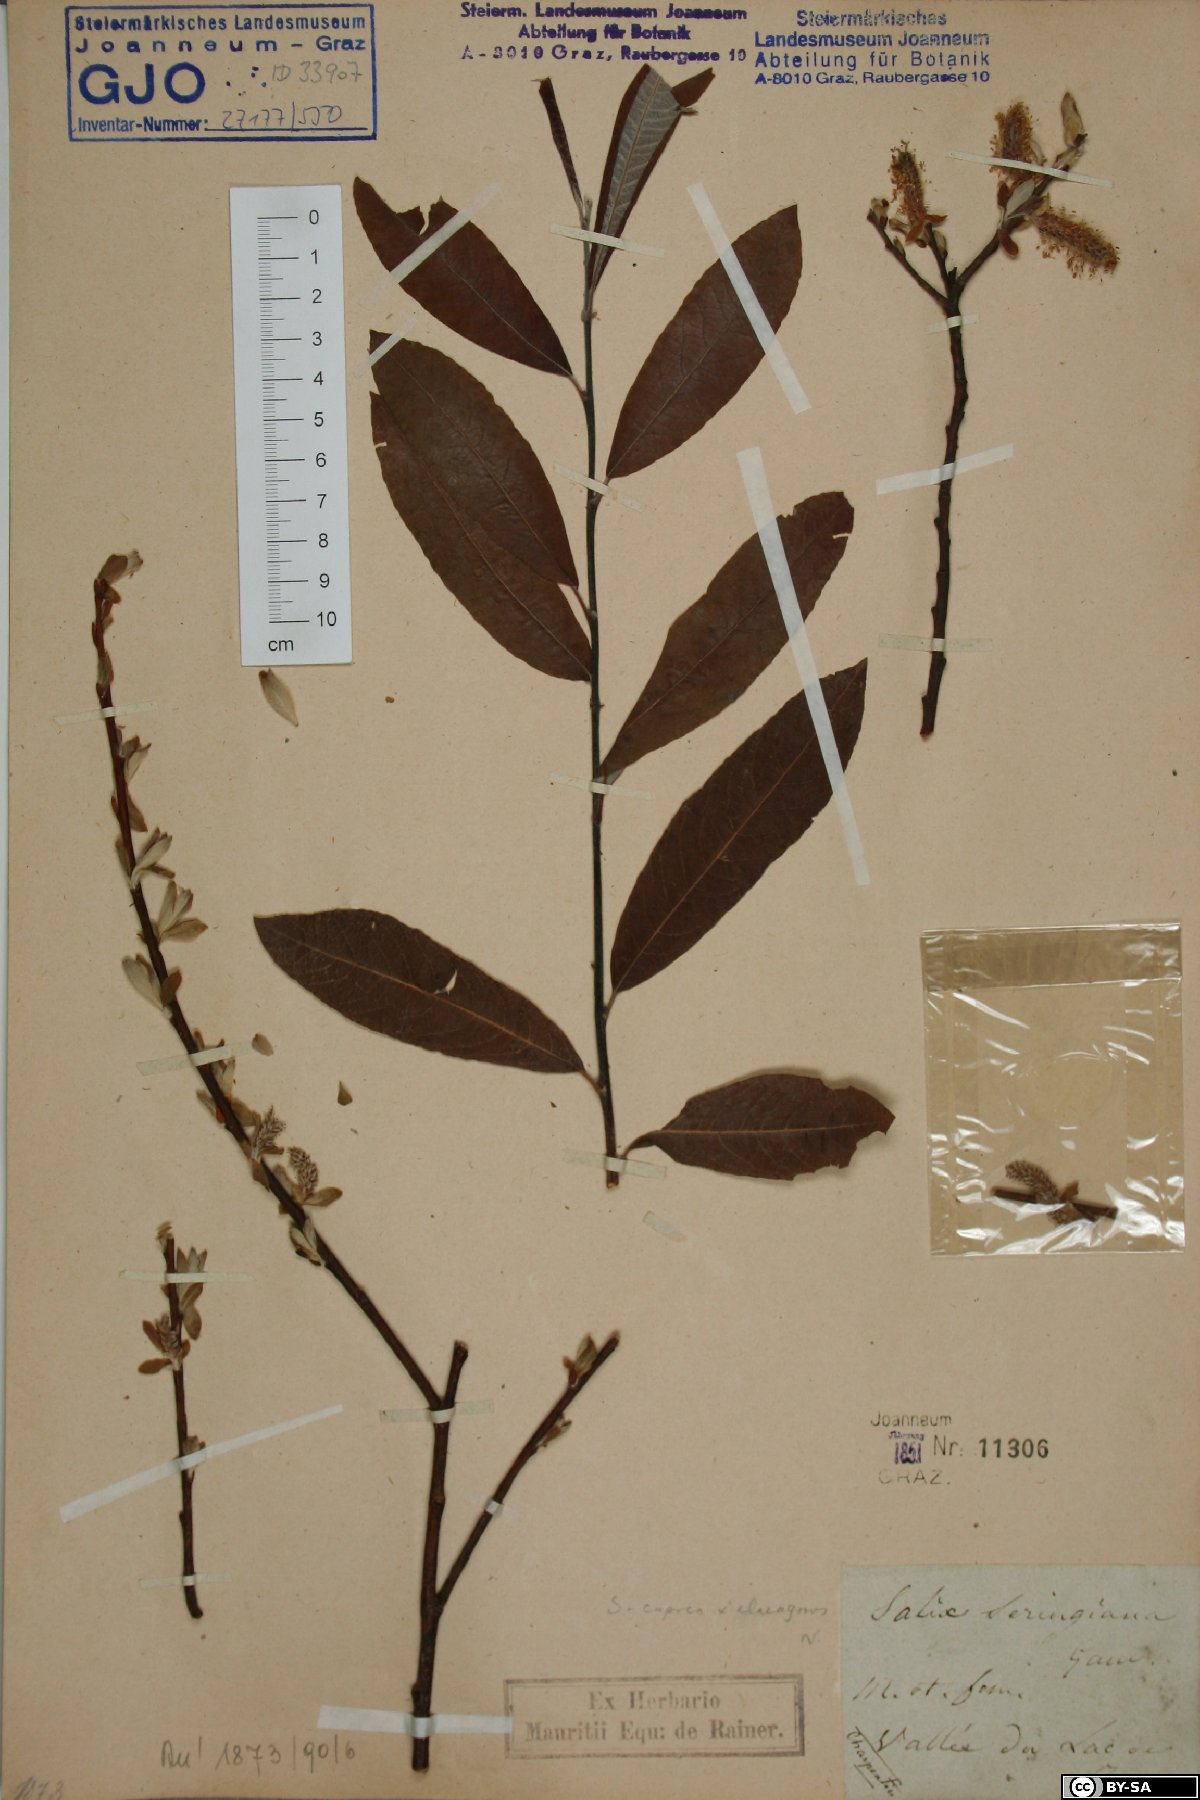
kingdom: Plantae
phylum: Tracheophyta
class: Magnoliopsida
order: Malpighiales
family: Salicaceae
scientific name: Salicaceae
